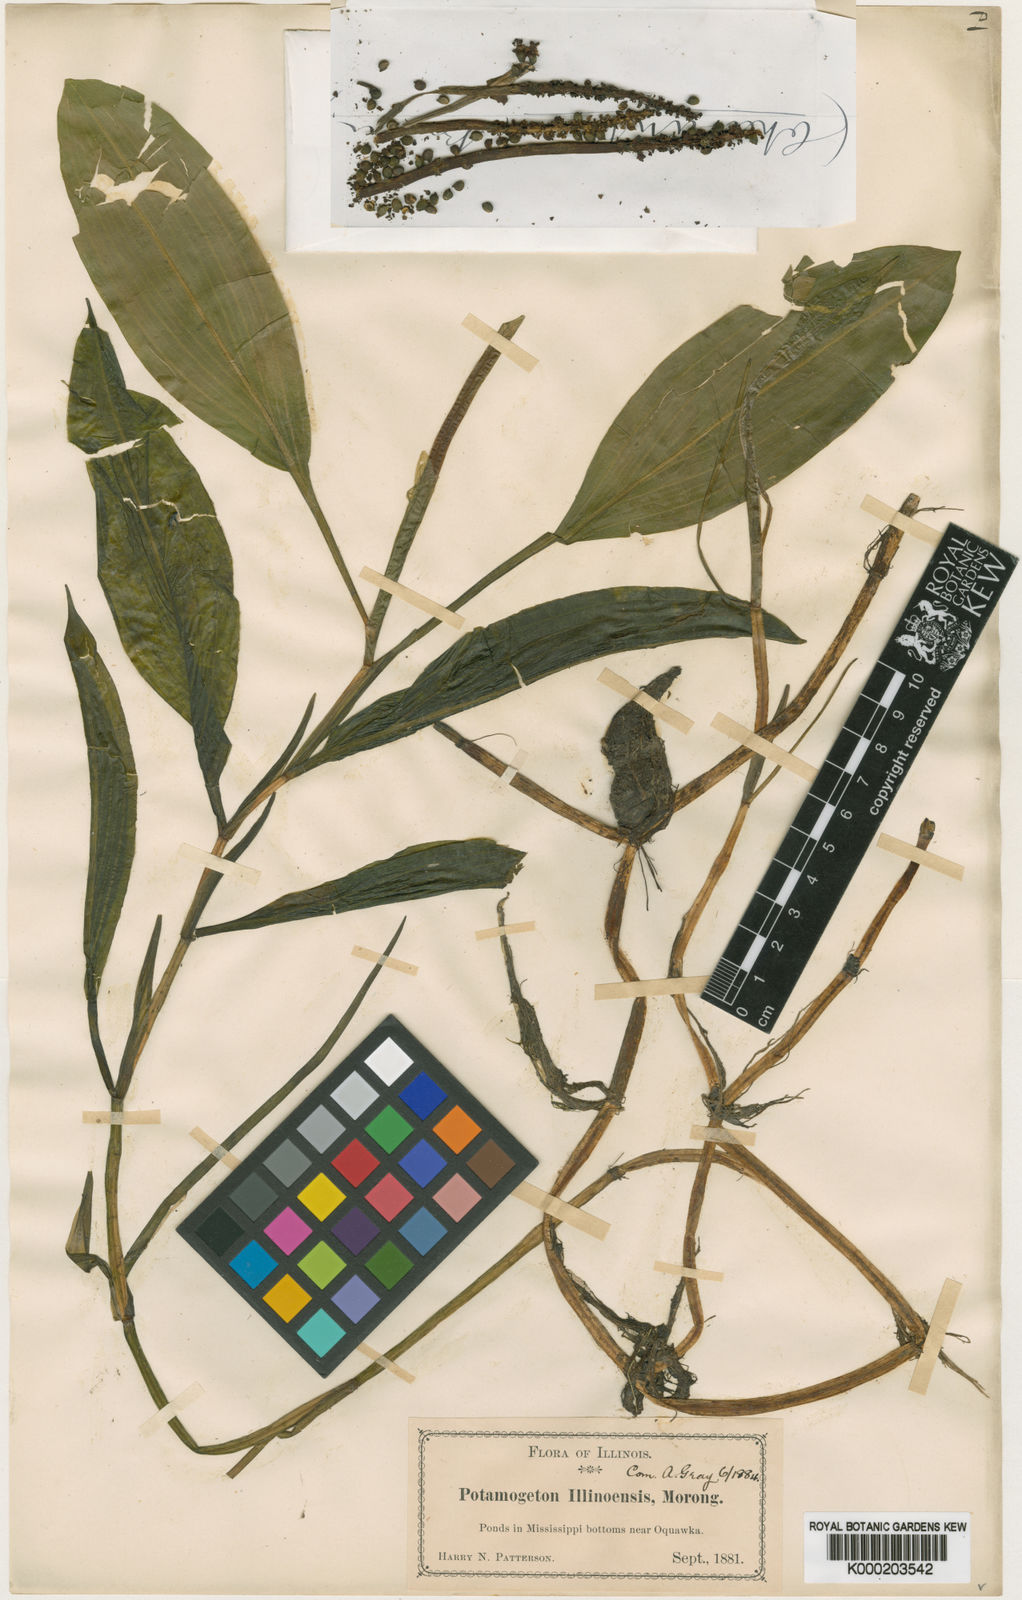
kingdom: Plantae
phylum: Tracheophyta
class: Liliopsida
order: Alismatales
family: Potamogetonaceae
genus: Potamogeton
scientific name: Potamogeton illinoensis
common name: Illinois pondweed
